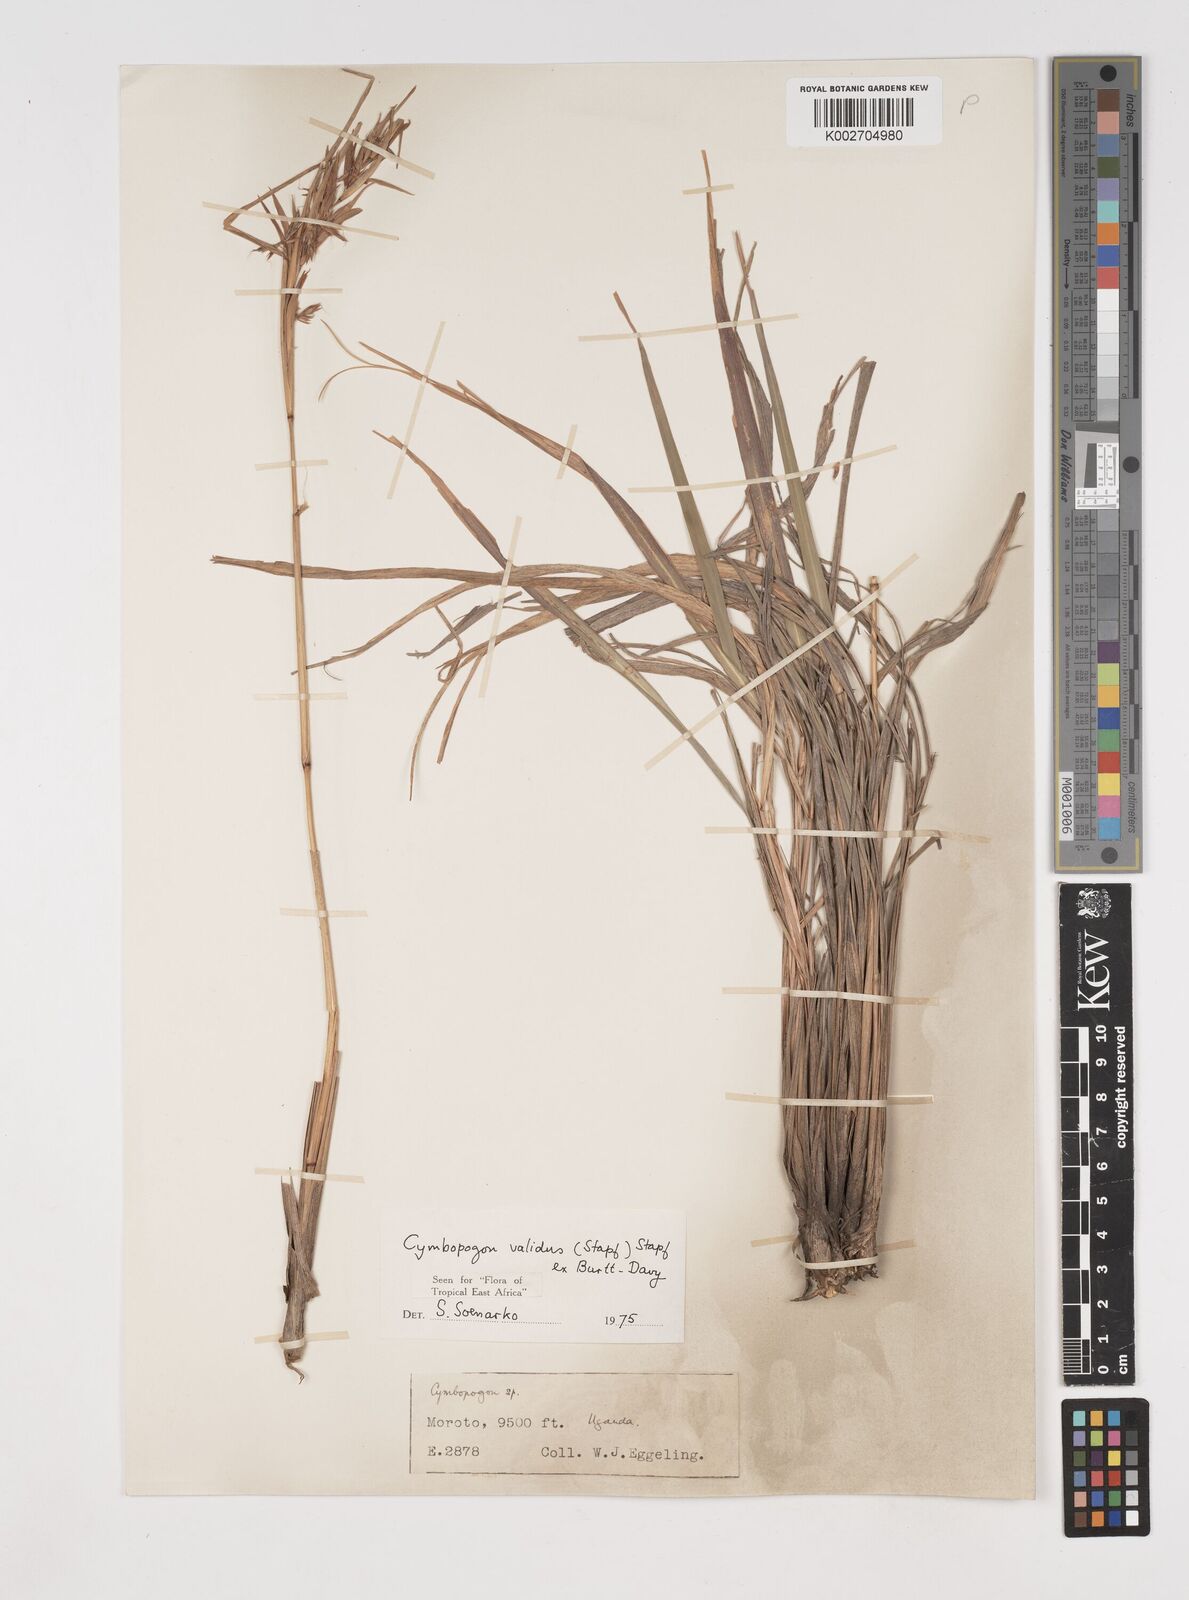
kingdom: Plantae
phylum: Tracheophyta
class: Liliopsida
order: Poales
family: Poaceae
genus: Cymbopogon
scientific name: Cymbopogon nardus
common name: Giant turpentine grass
